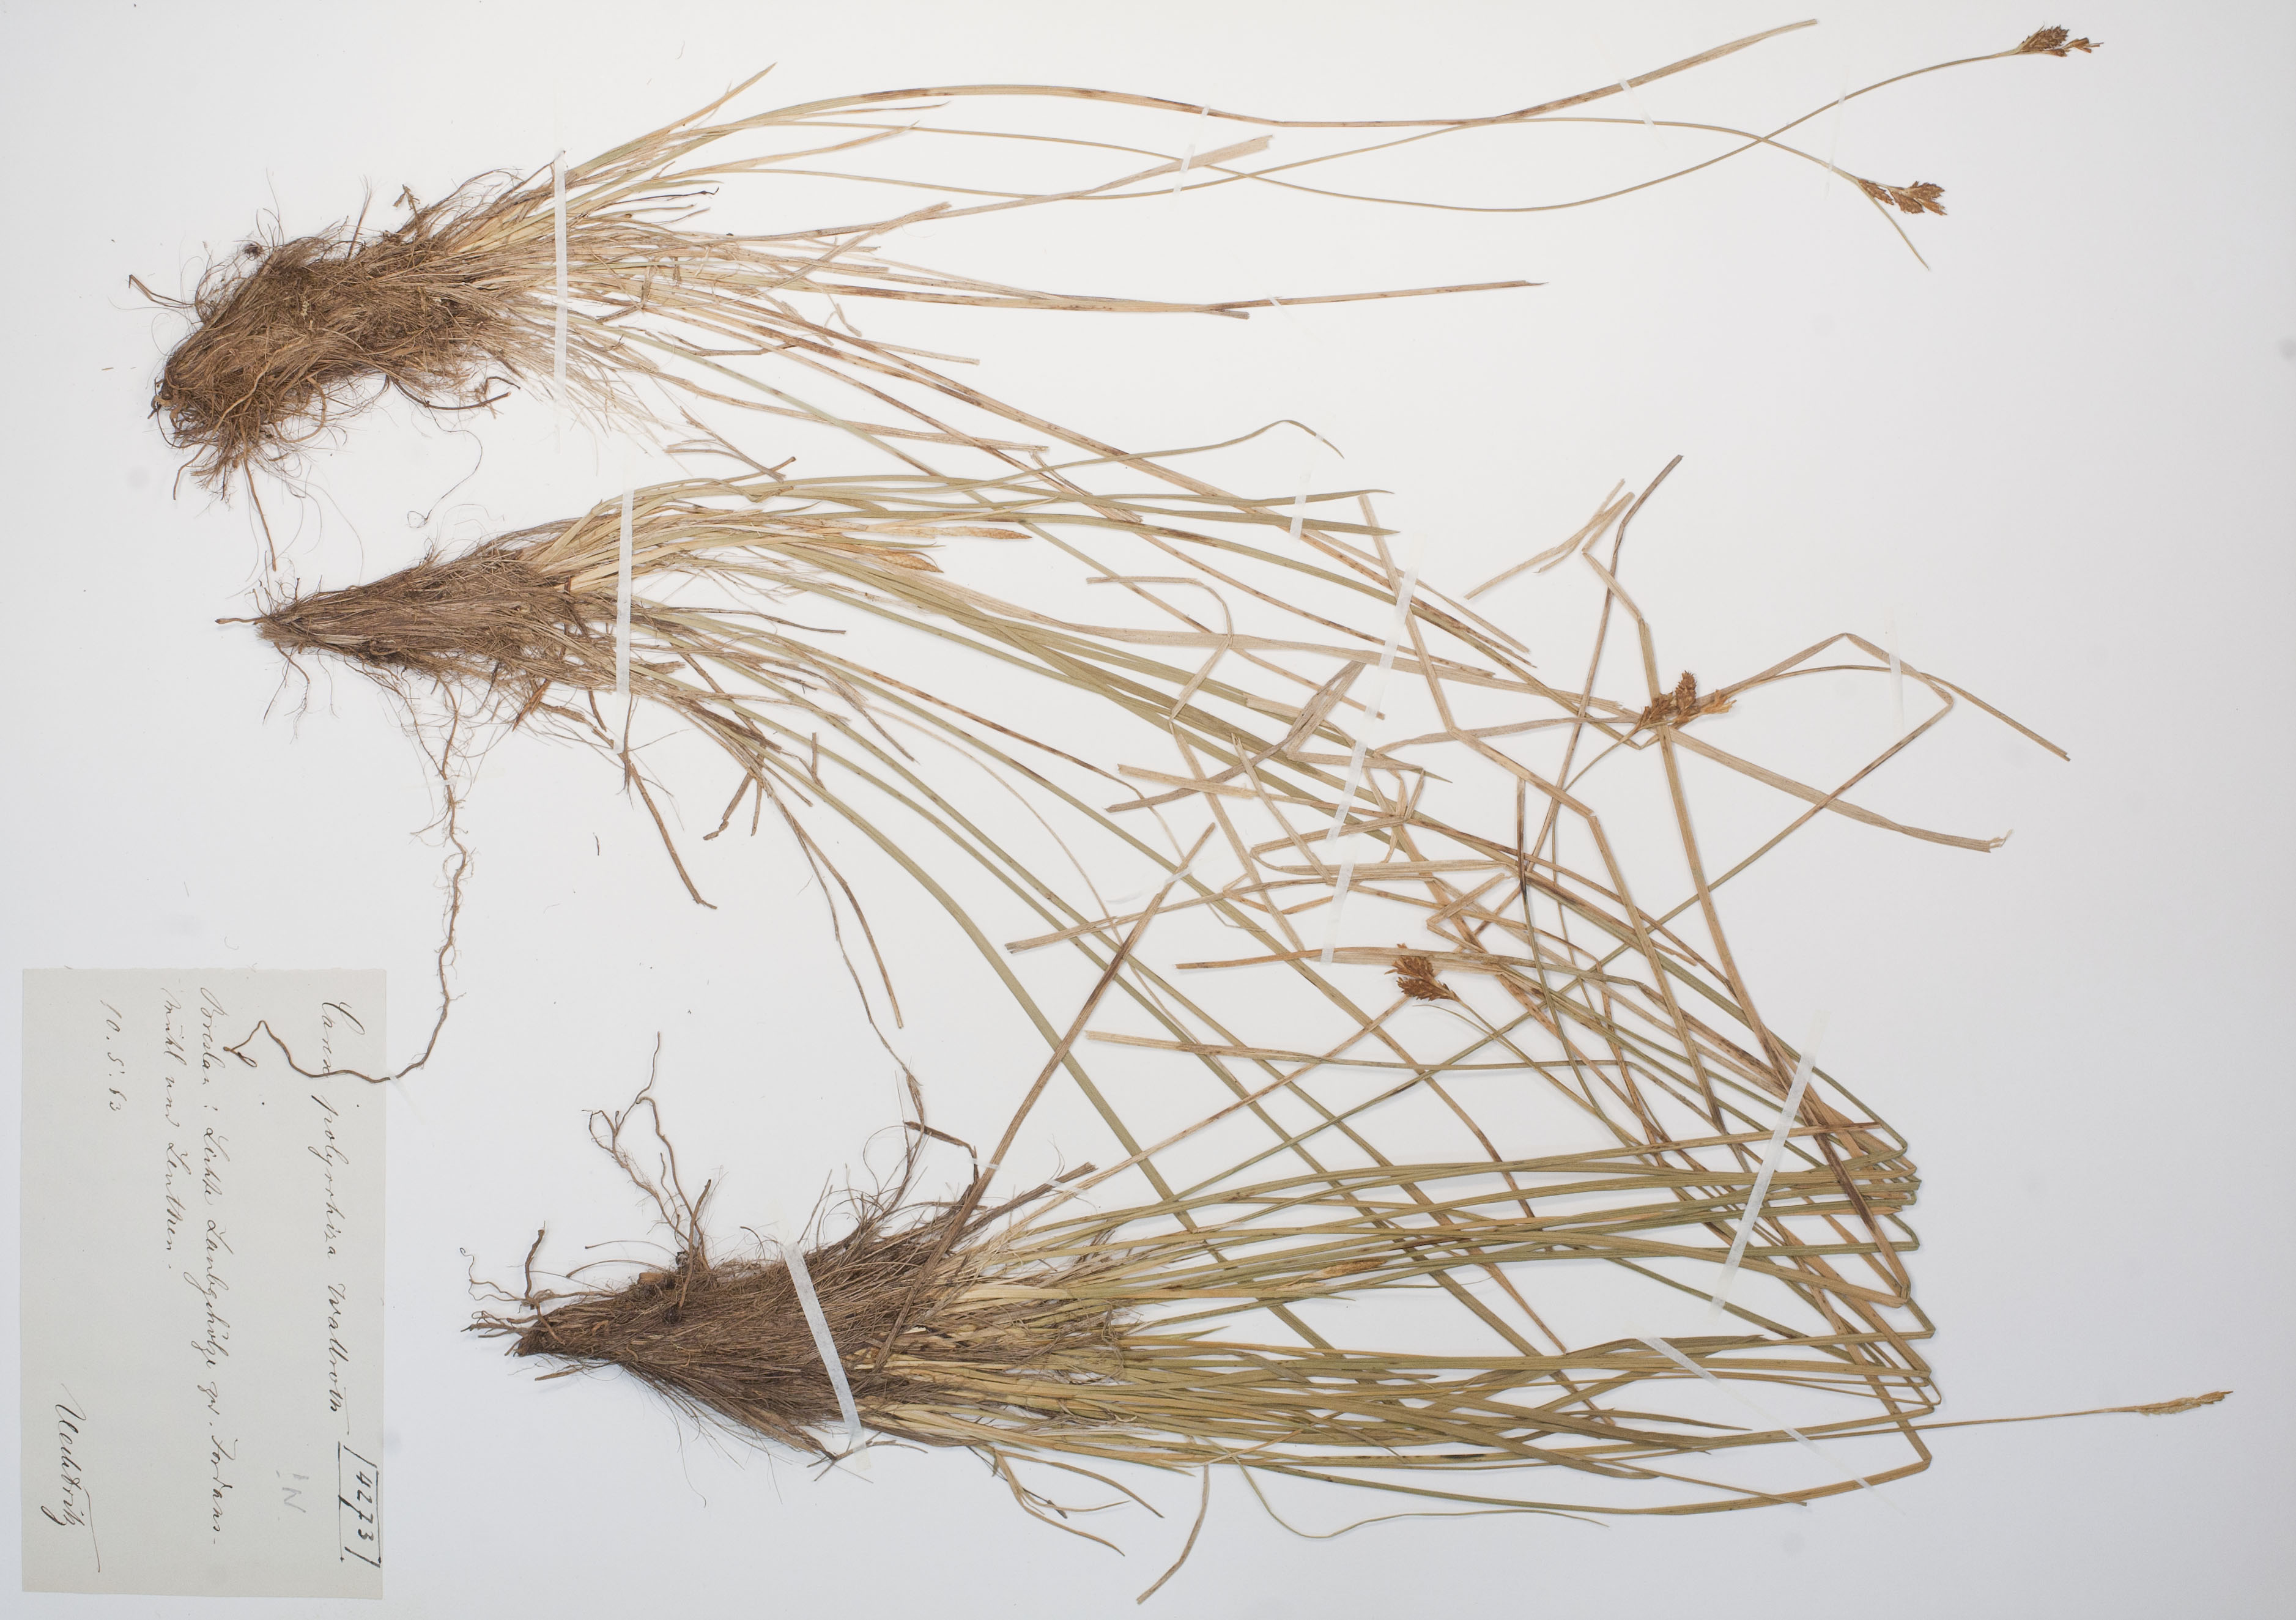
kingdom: Plantae
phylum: Tracheophyta
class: Liliopsida
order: Poales
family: Cyperaceae
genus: Carex
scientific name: Carex umbrosa
